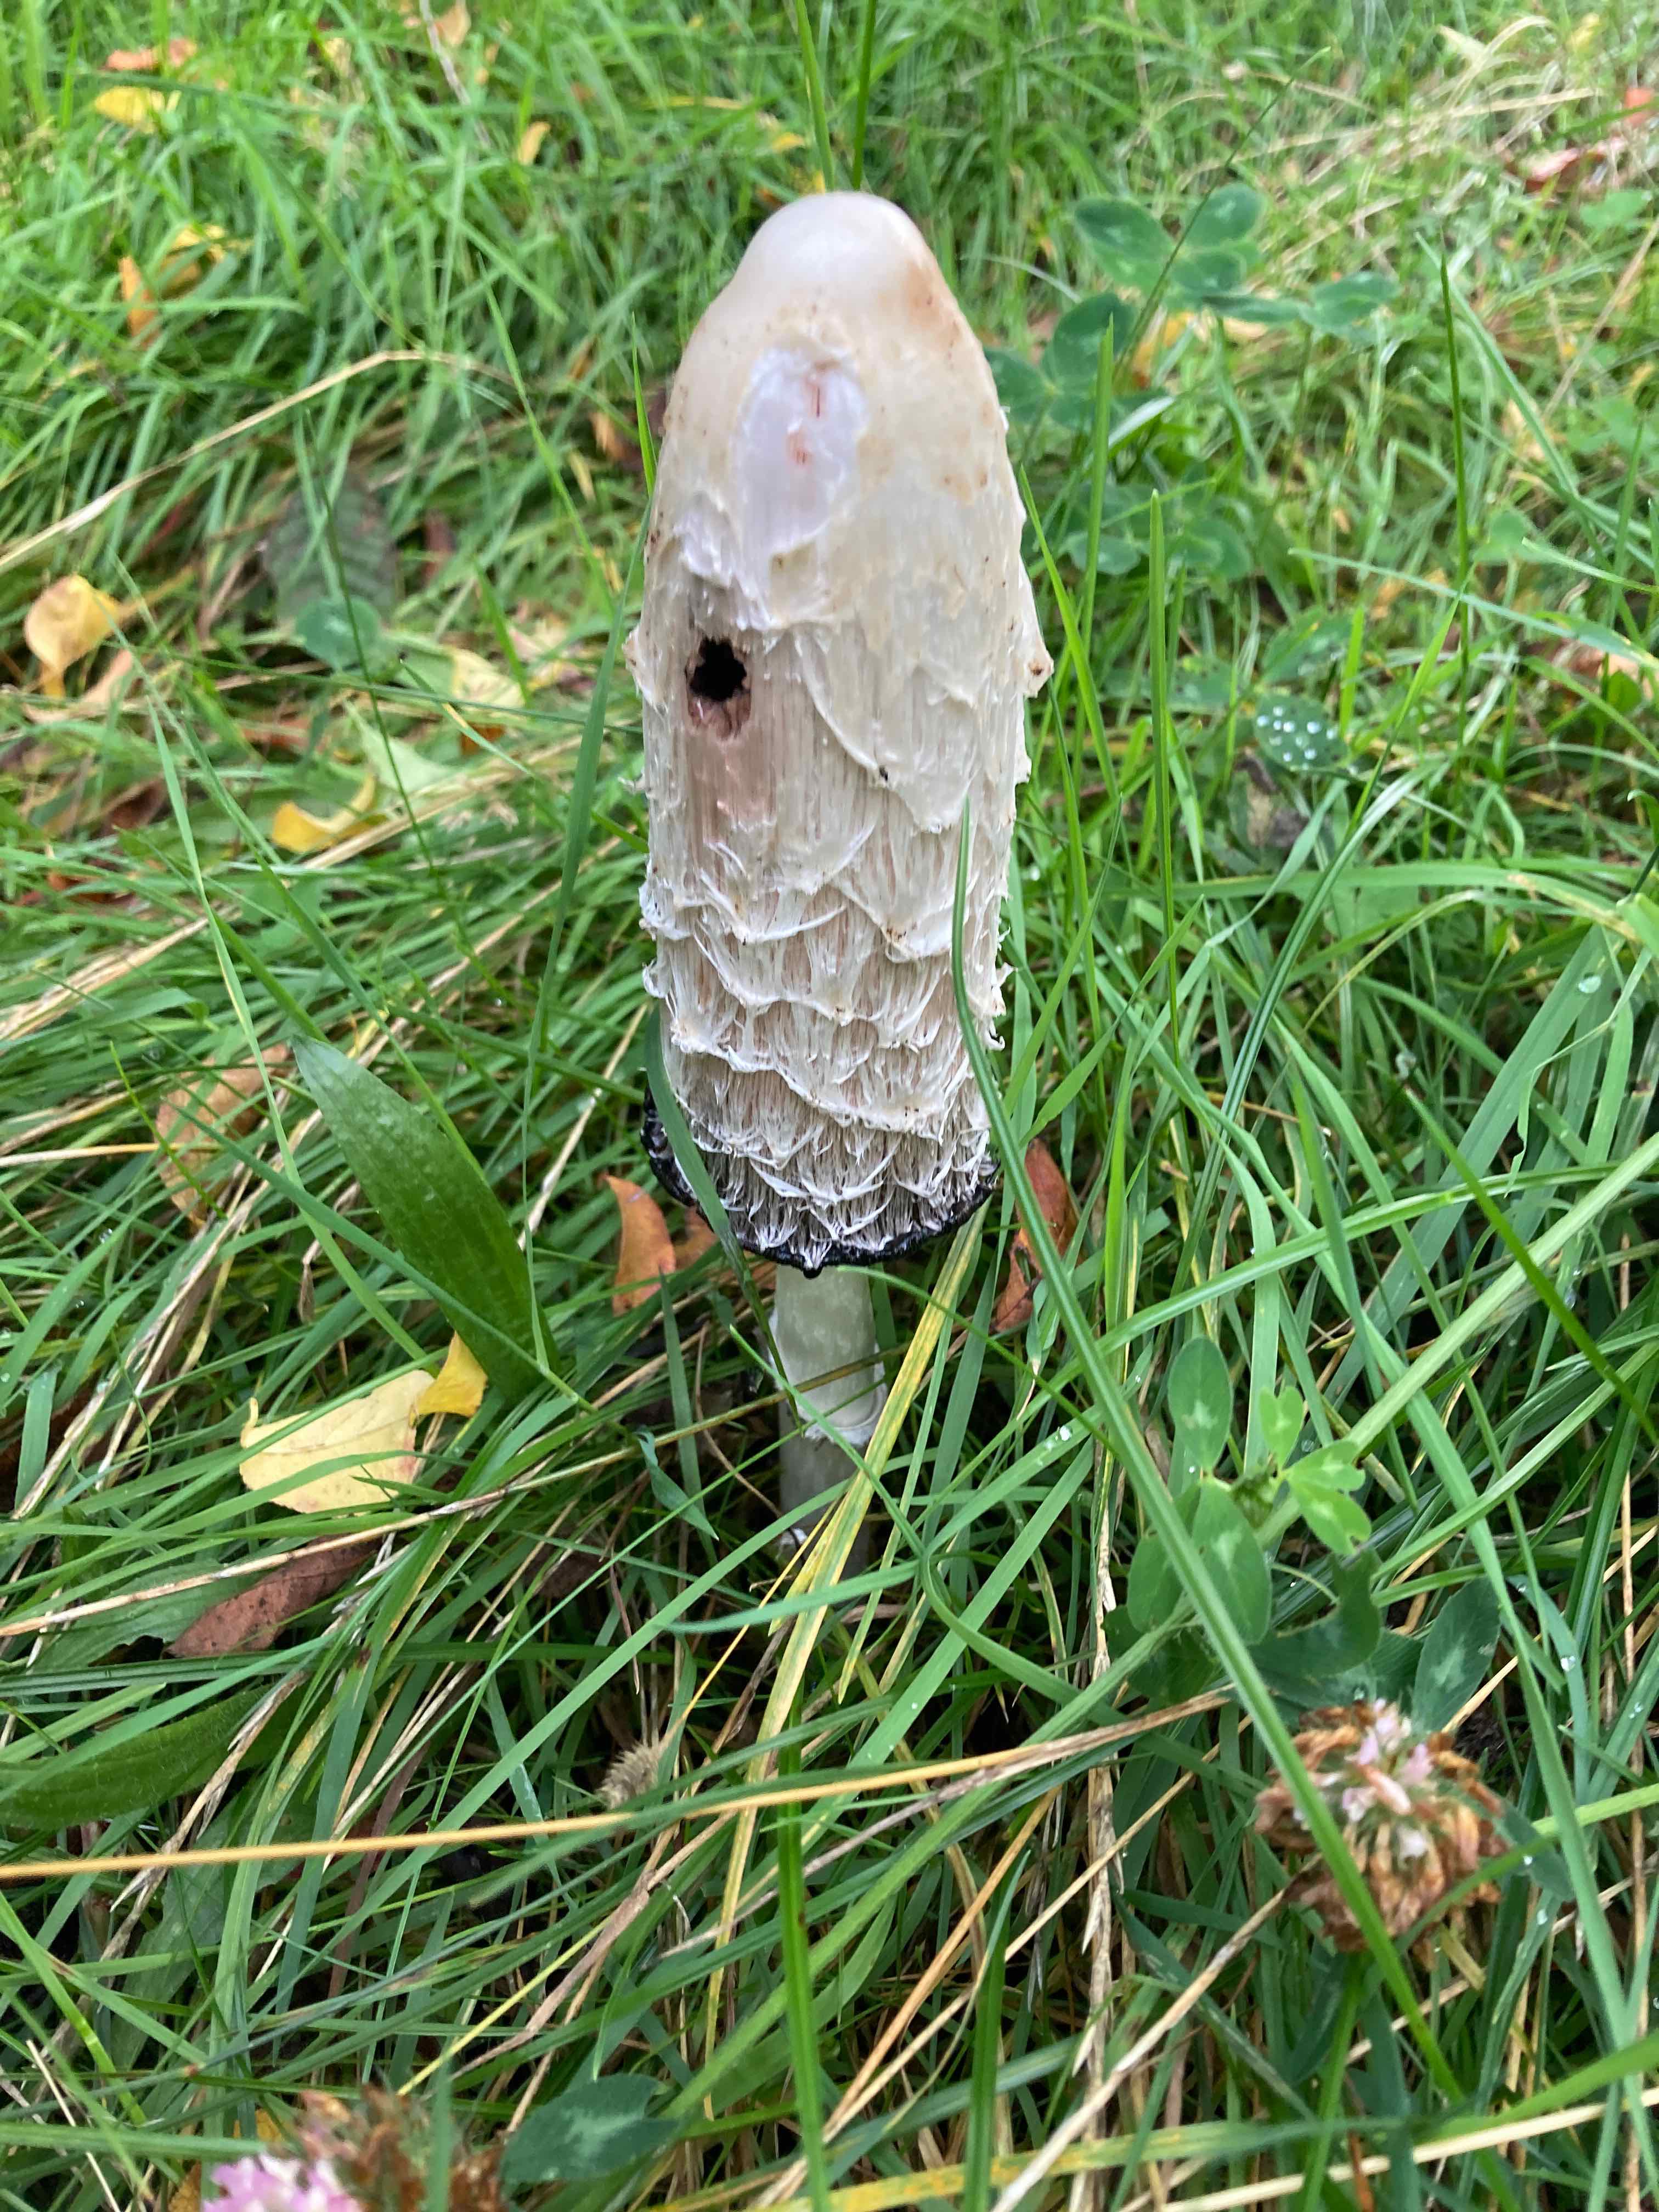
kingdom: Fungi
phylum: Basidiomycota
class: Agaricomycetes
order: Agaricales
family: Agaricaceae
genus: Coprinus
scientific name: Coprinus comatus
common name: stor parykhat
